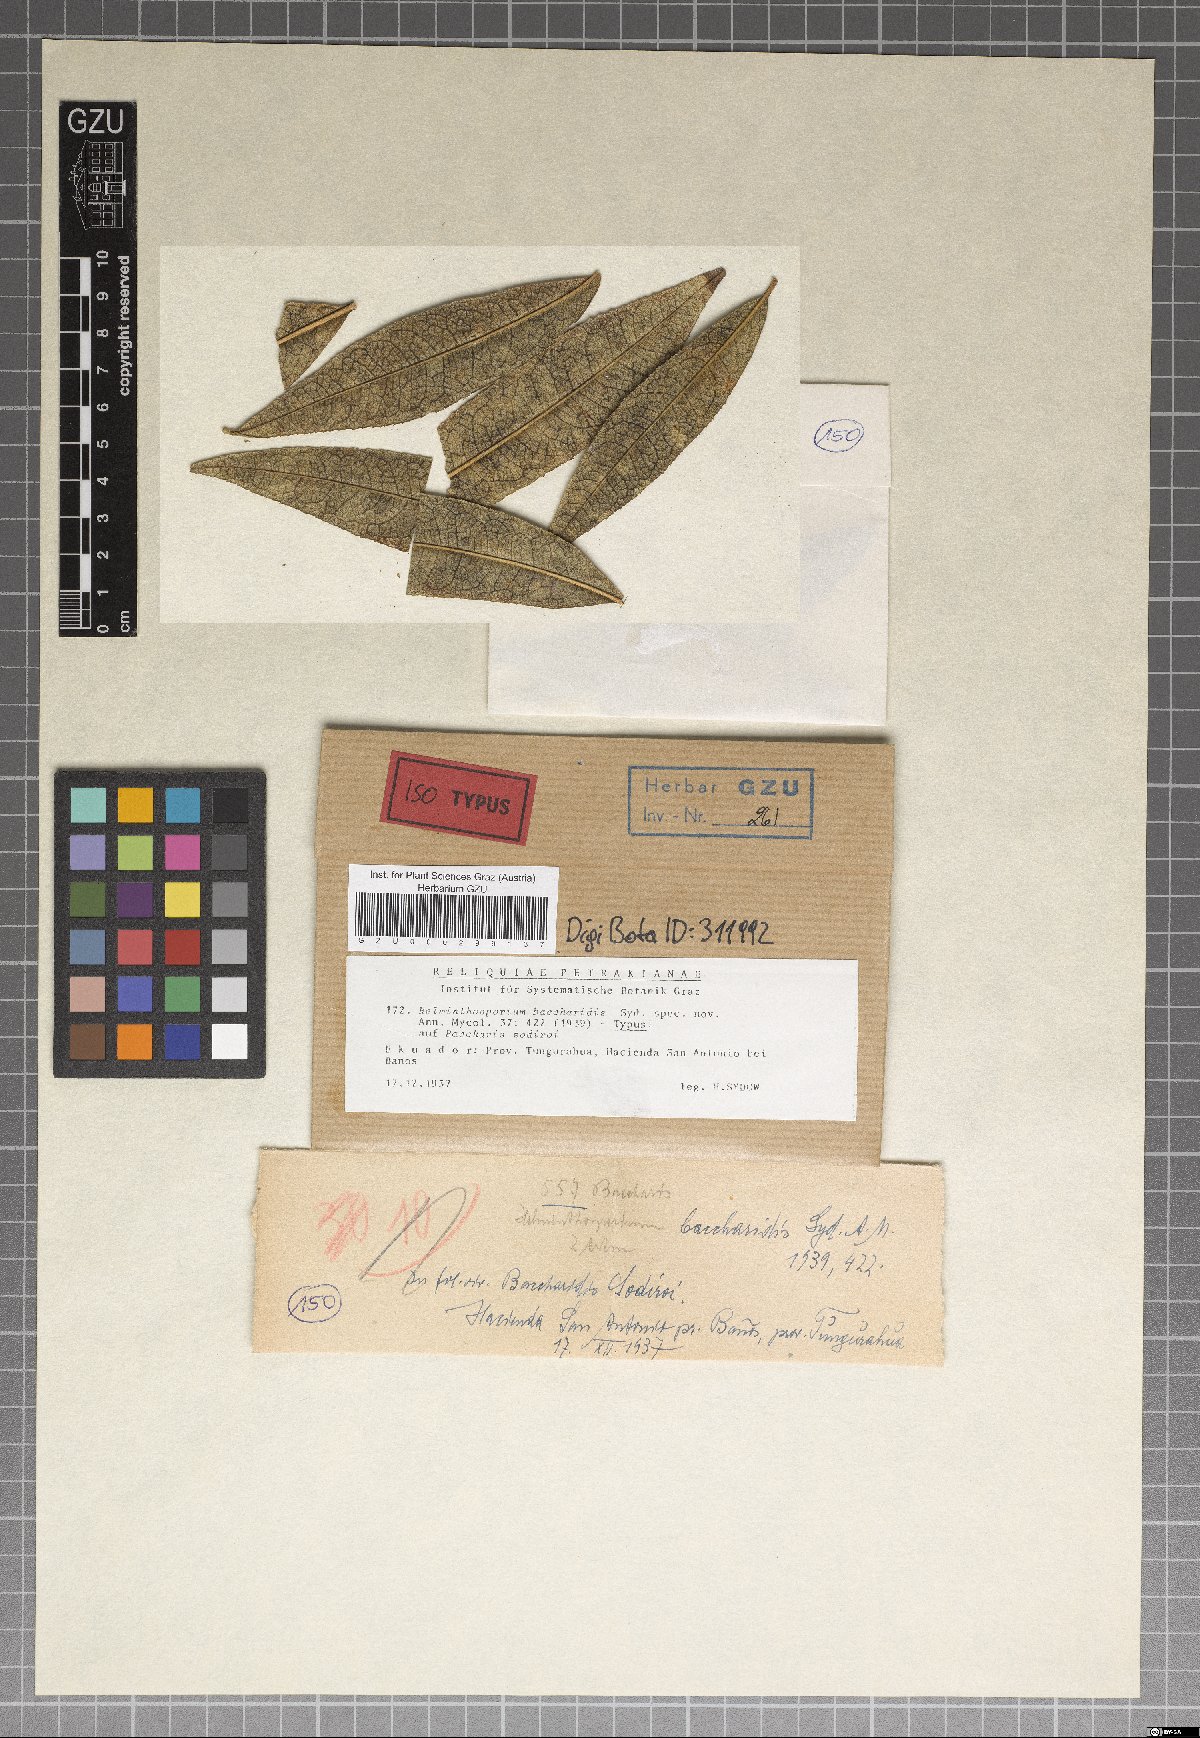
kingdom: Fungi
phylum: Ascomycota
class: Dothideomycetes
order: Pleosporales
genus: Sporidesmium
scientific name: Sporidesmium baccharidis
